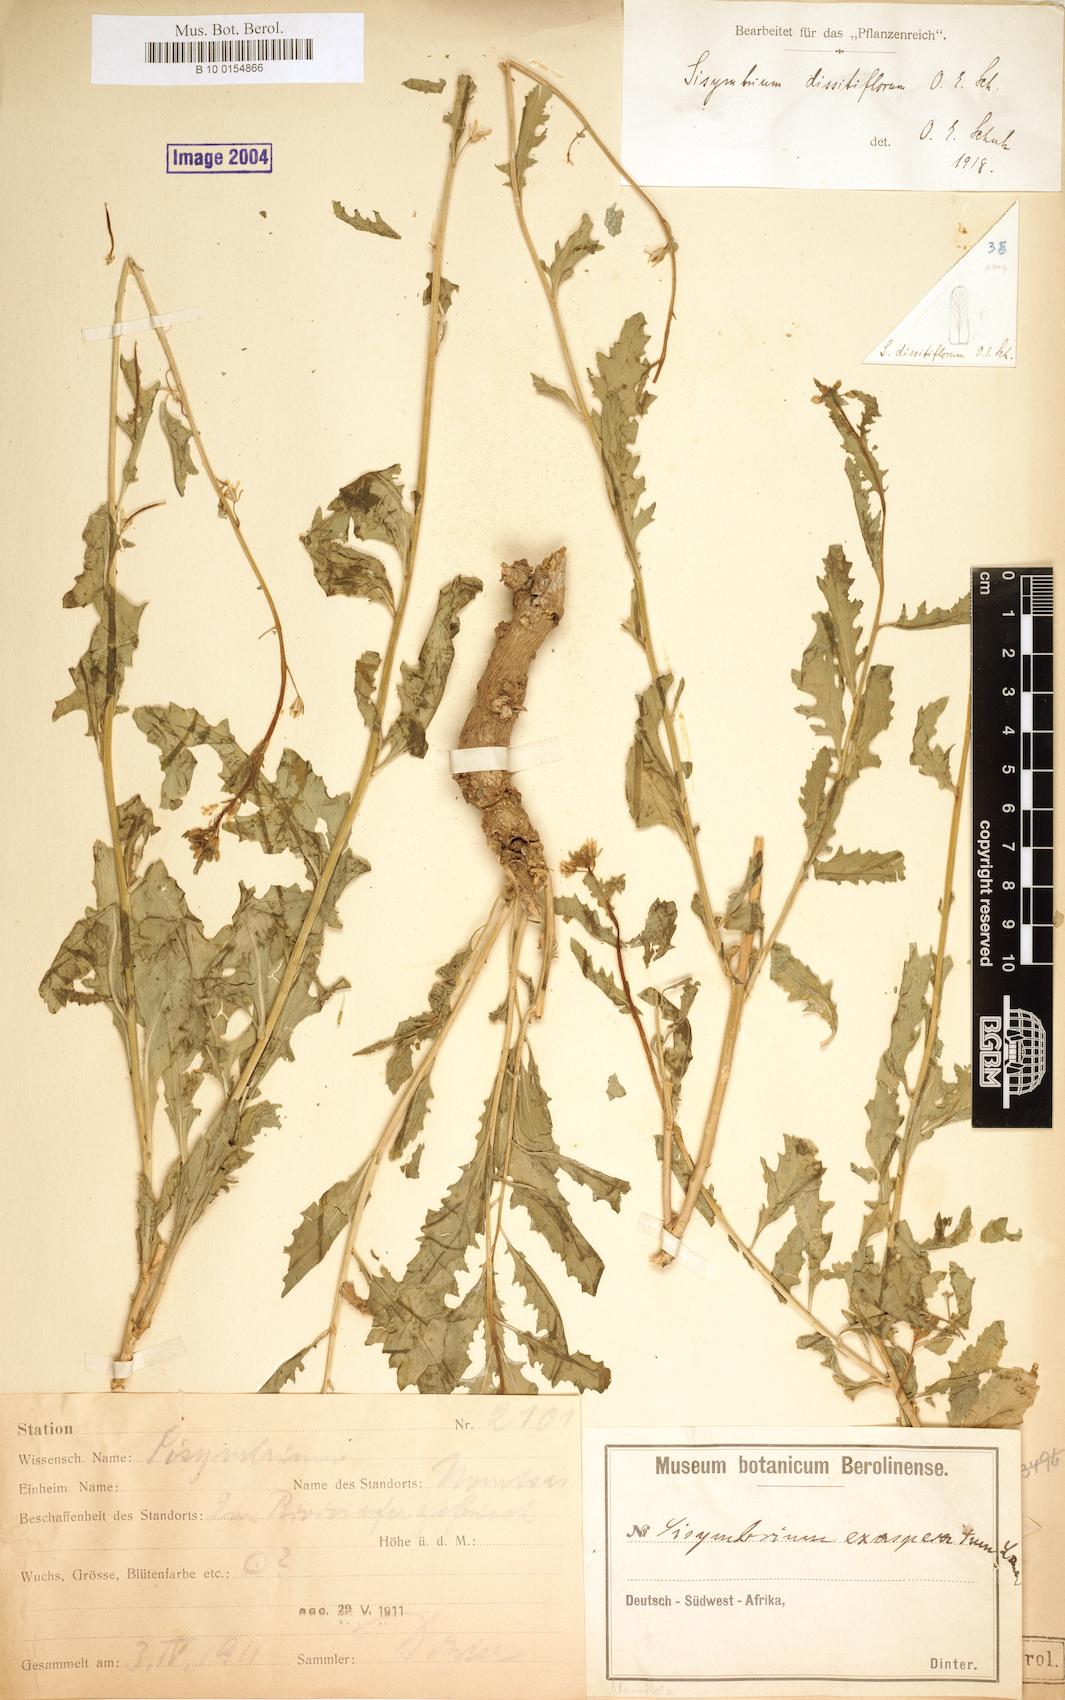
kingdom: Plantae
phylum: Tracheophyta
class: Magnoliopsida
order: Brassicales
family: Brassicaceae
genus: Sisymbrium
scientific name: Sisymbrium dissitiflorum
